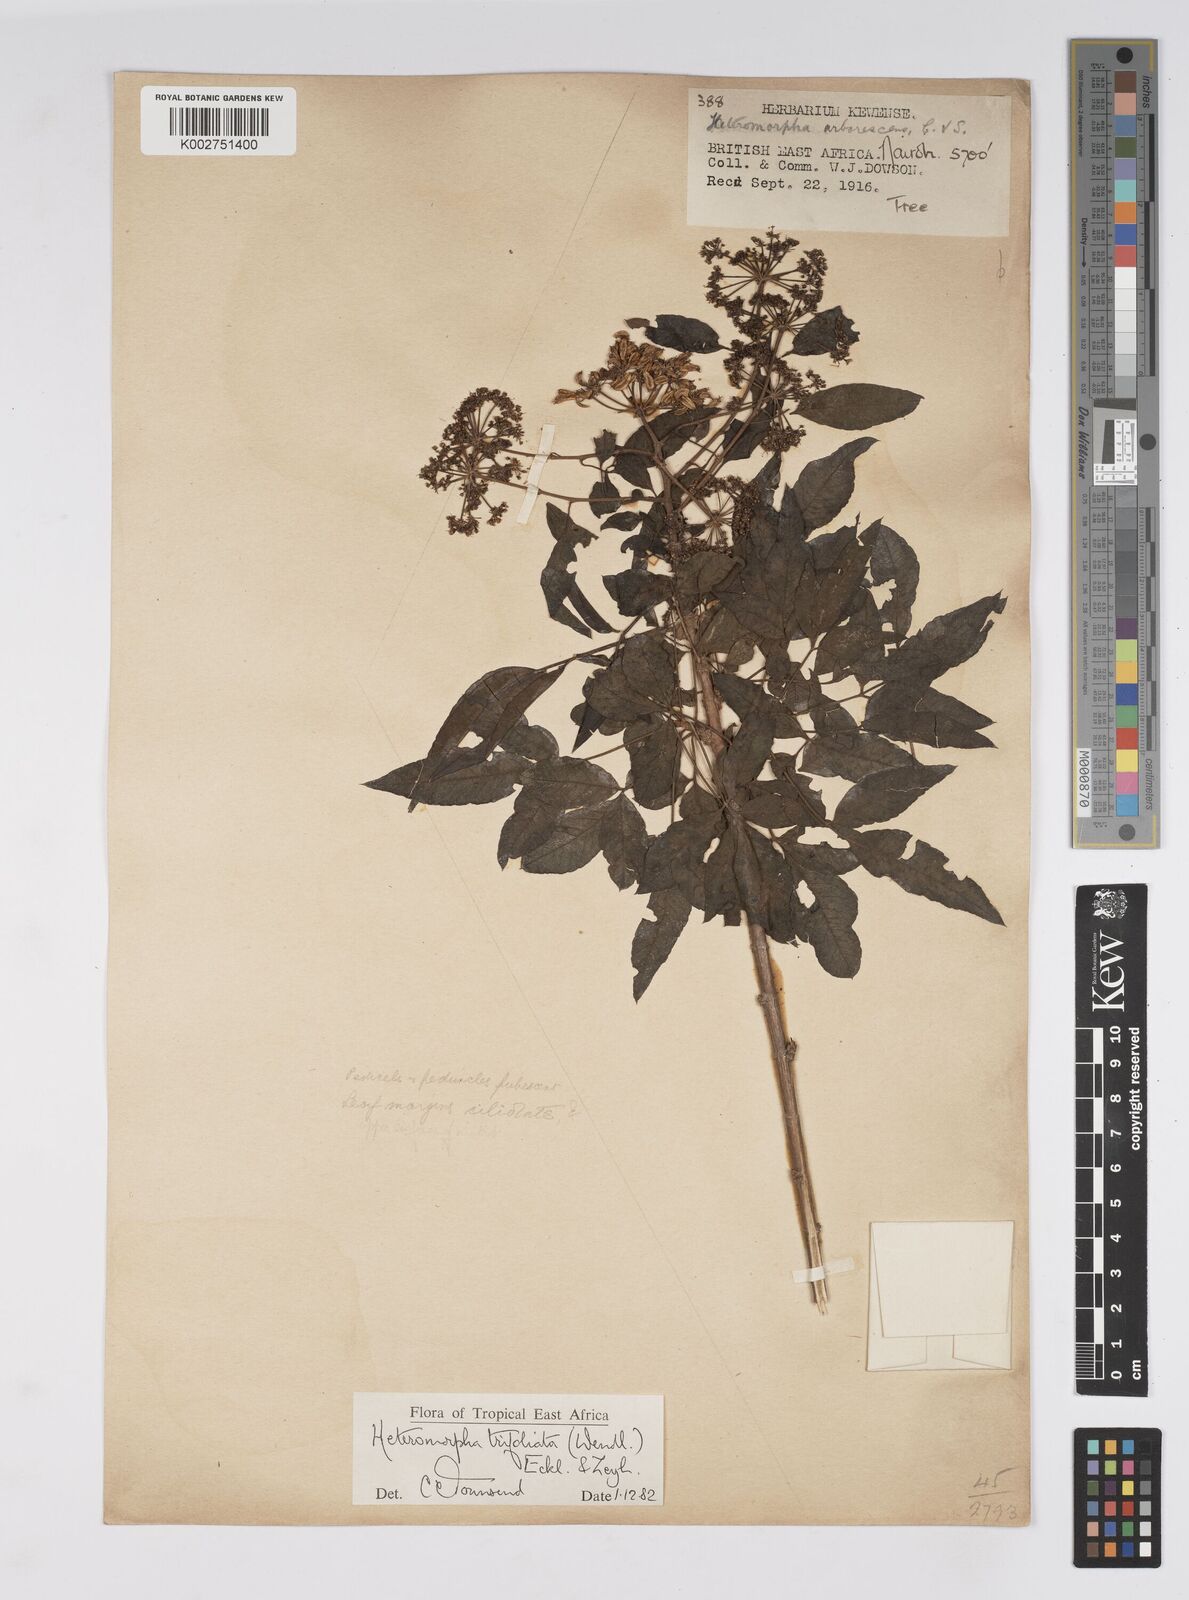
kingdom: Plantae
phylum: Tracheophyta
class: Magnoliopsida
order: Apiales
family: Apiaceae
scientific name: Apiaceae
